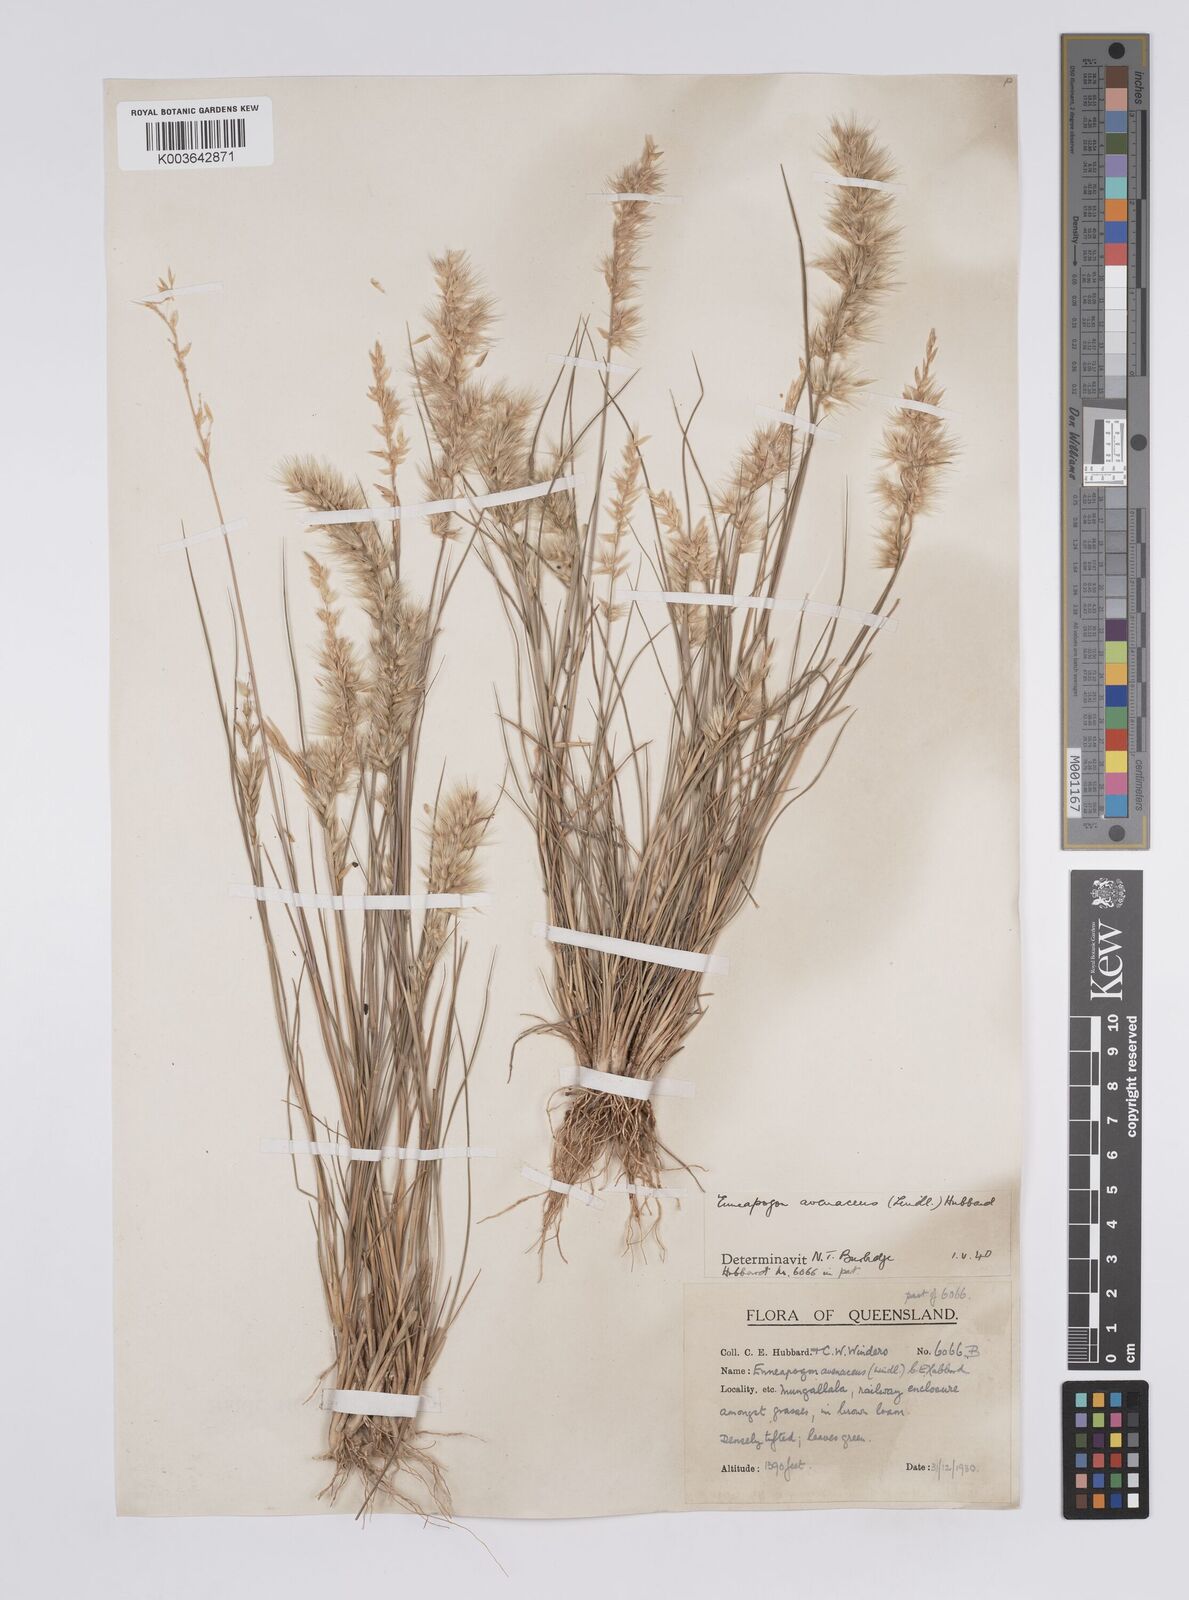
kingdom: Plantae
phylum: Tracheophyta
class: Liliopsida
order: Poales
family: Poaceae
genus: Enneapogon
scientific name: Enneapogon avenaceus
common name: Hairy oat grass
